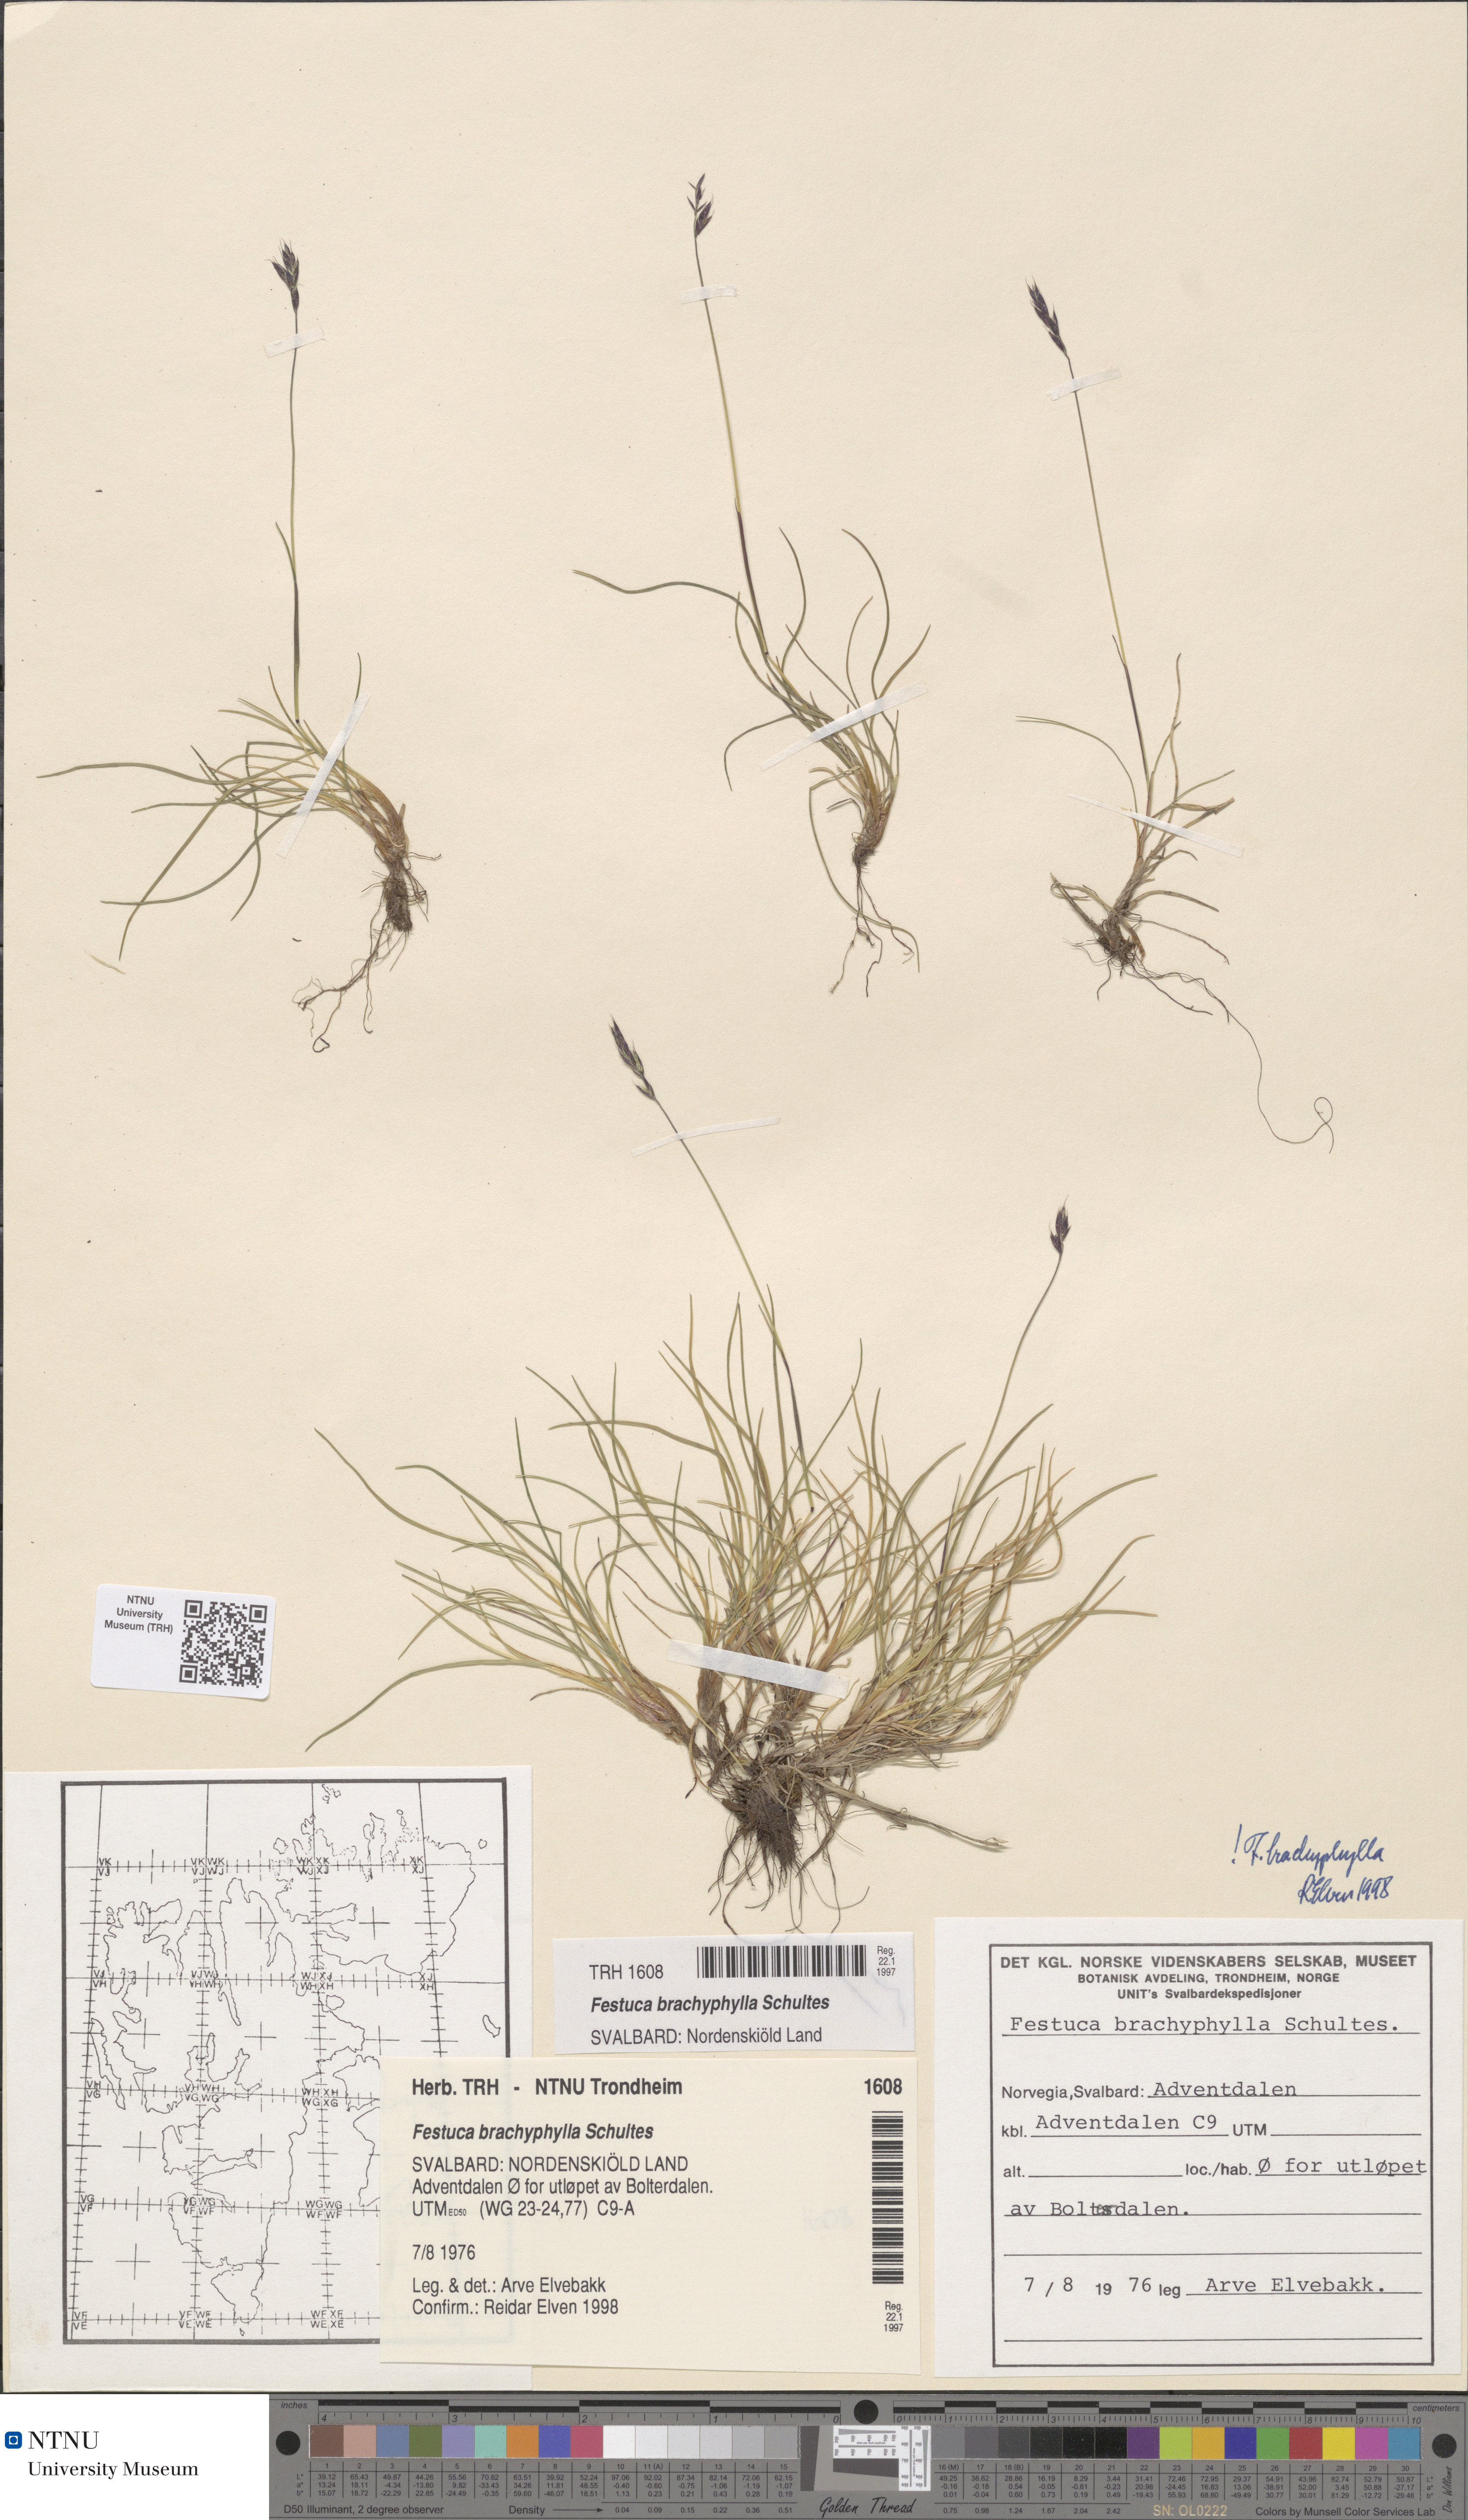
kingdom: Plantae
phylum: Tracheophyta
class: Liliopsida
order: Poales
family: Poaceae
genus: Festuca
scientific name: Festuca brachyphylla
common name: Alpine fescue
